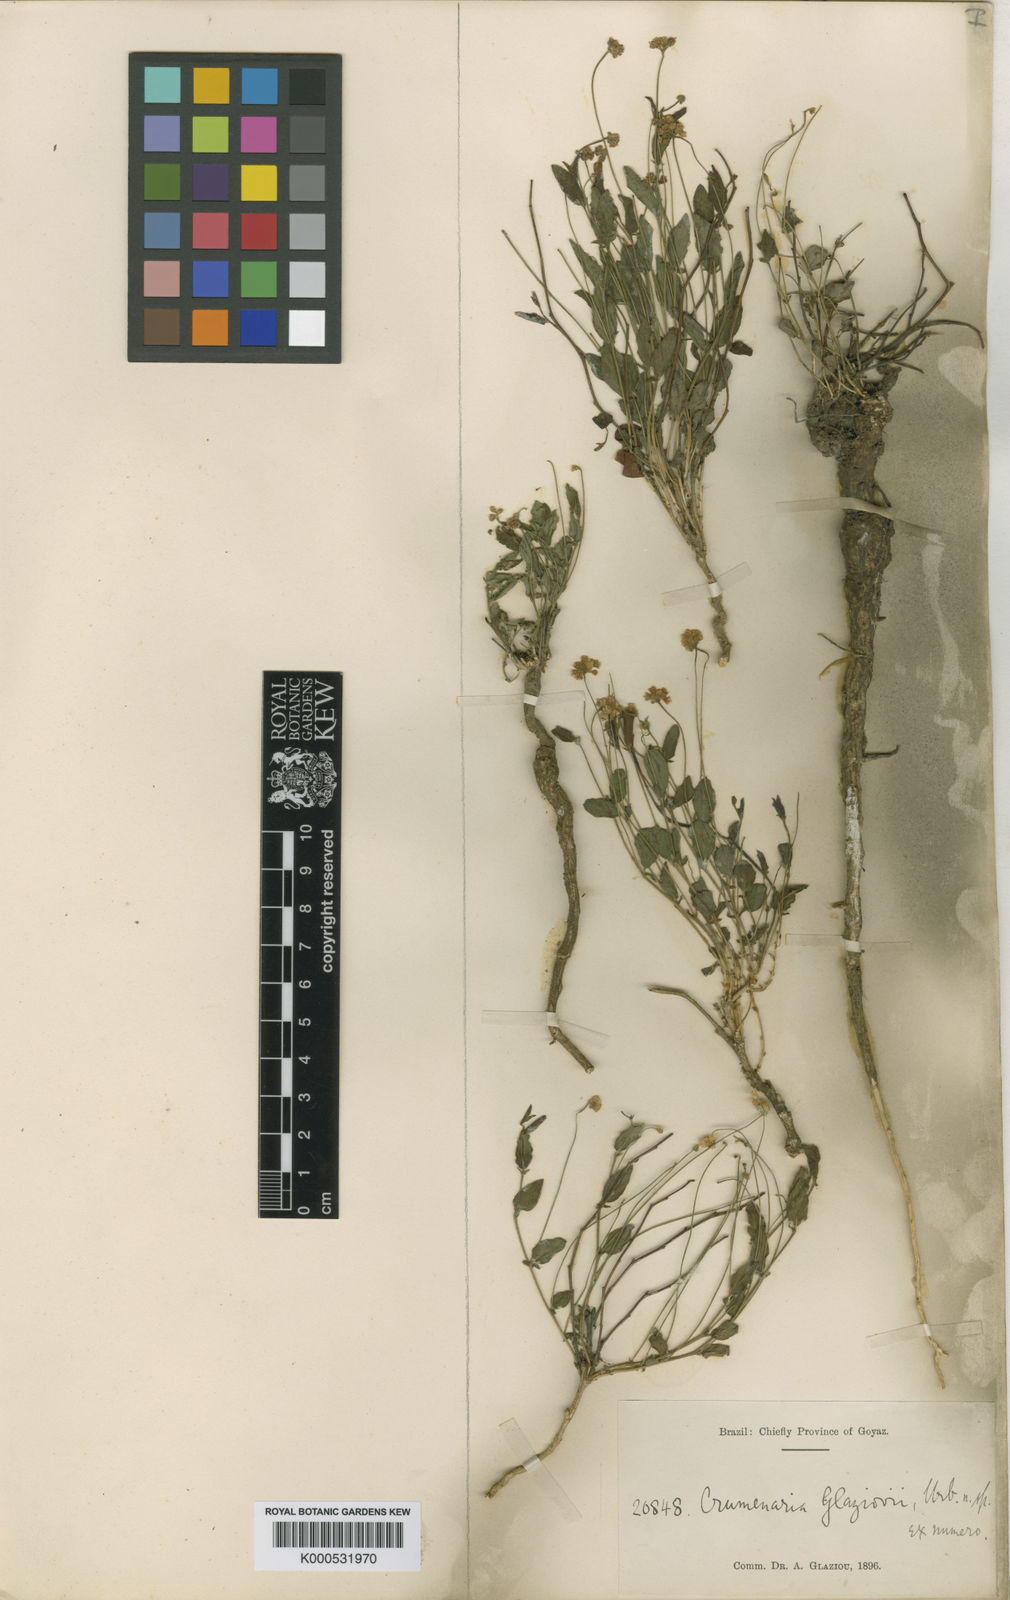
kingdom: Plantae
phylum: Tracheophyta
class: Magnoliopsida
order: Rosales
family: Rhamnaceae
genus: Crumenaria
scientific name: Crumenaria glaziovii
